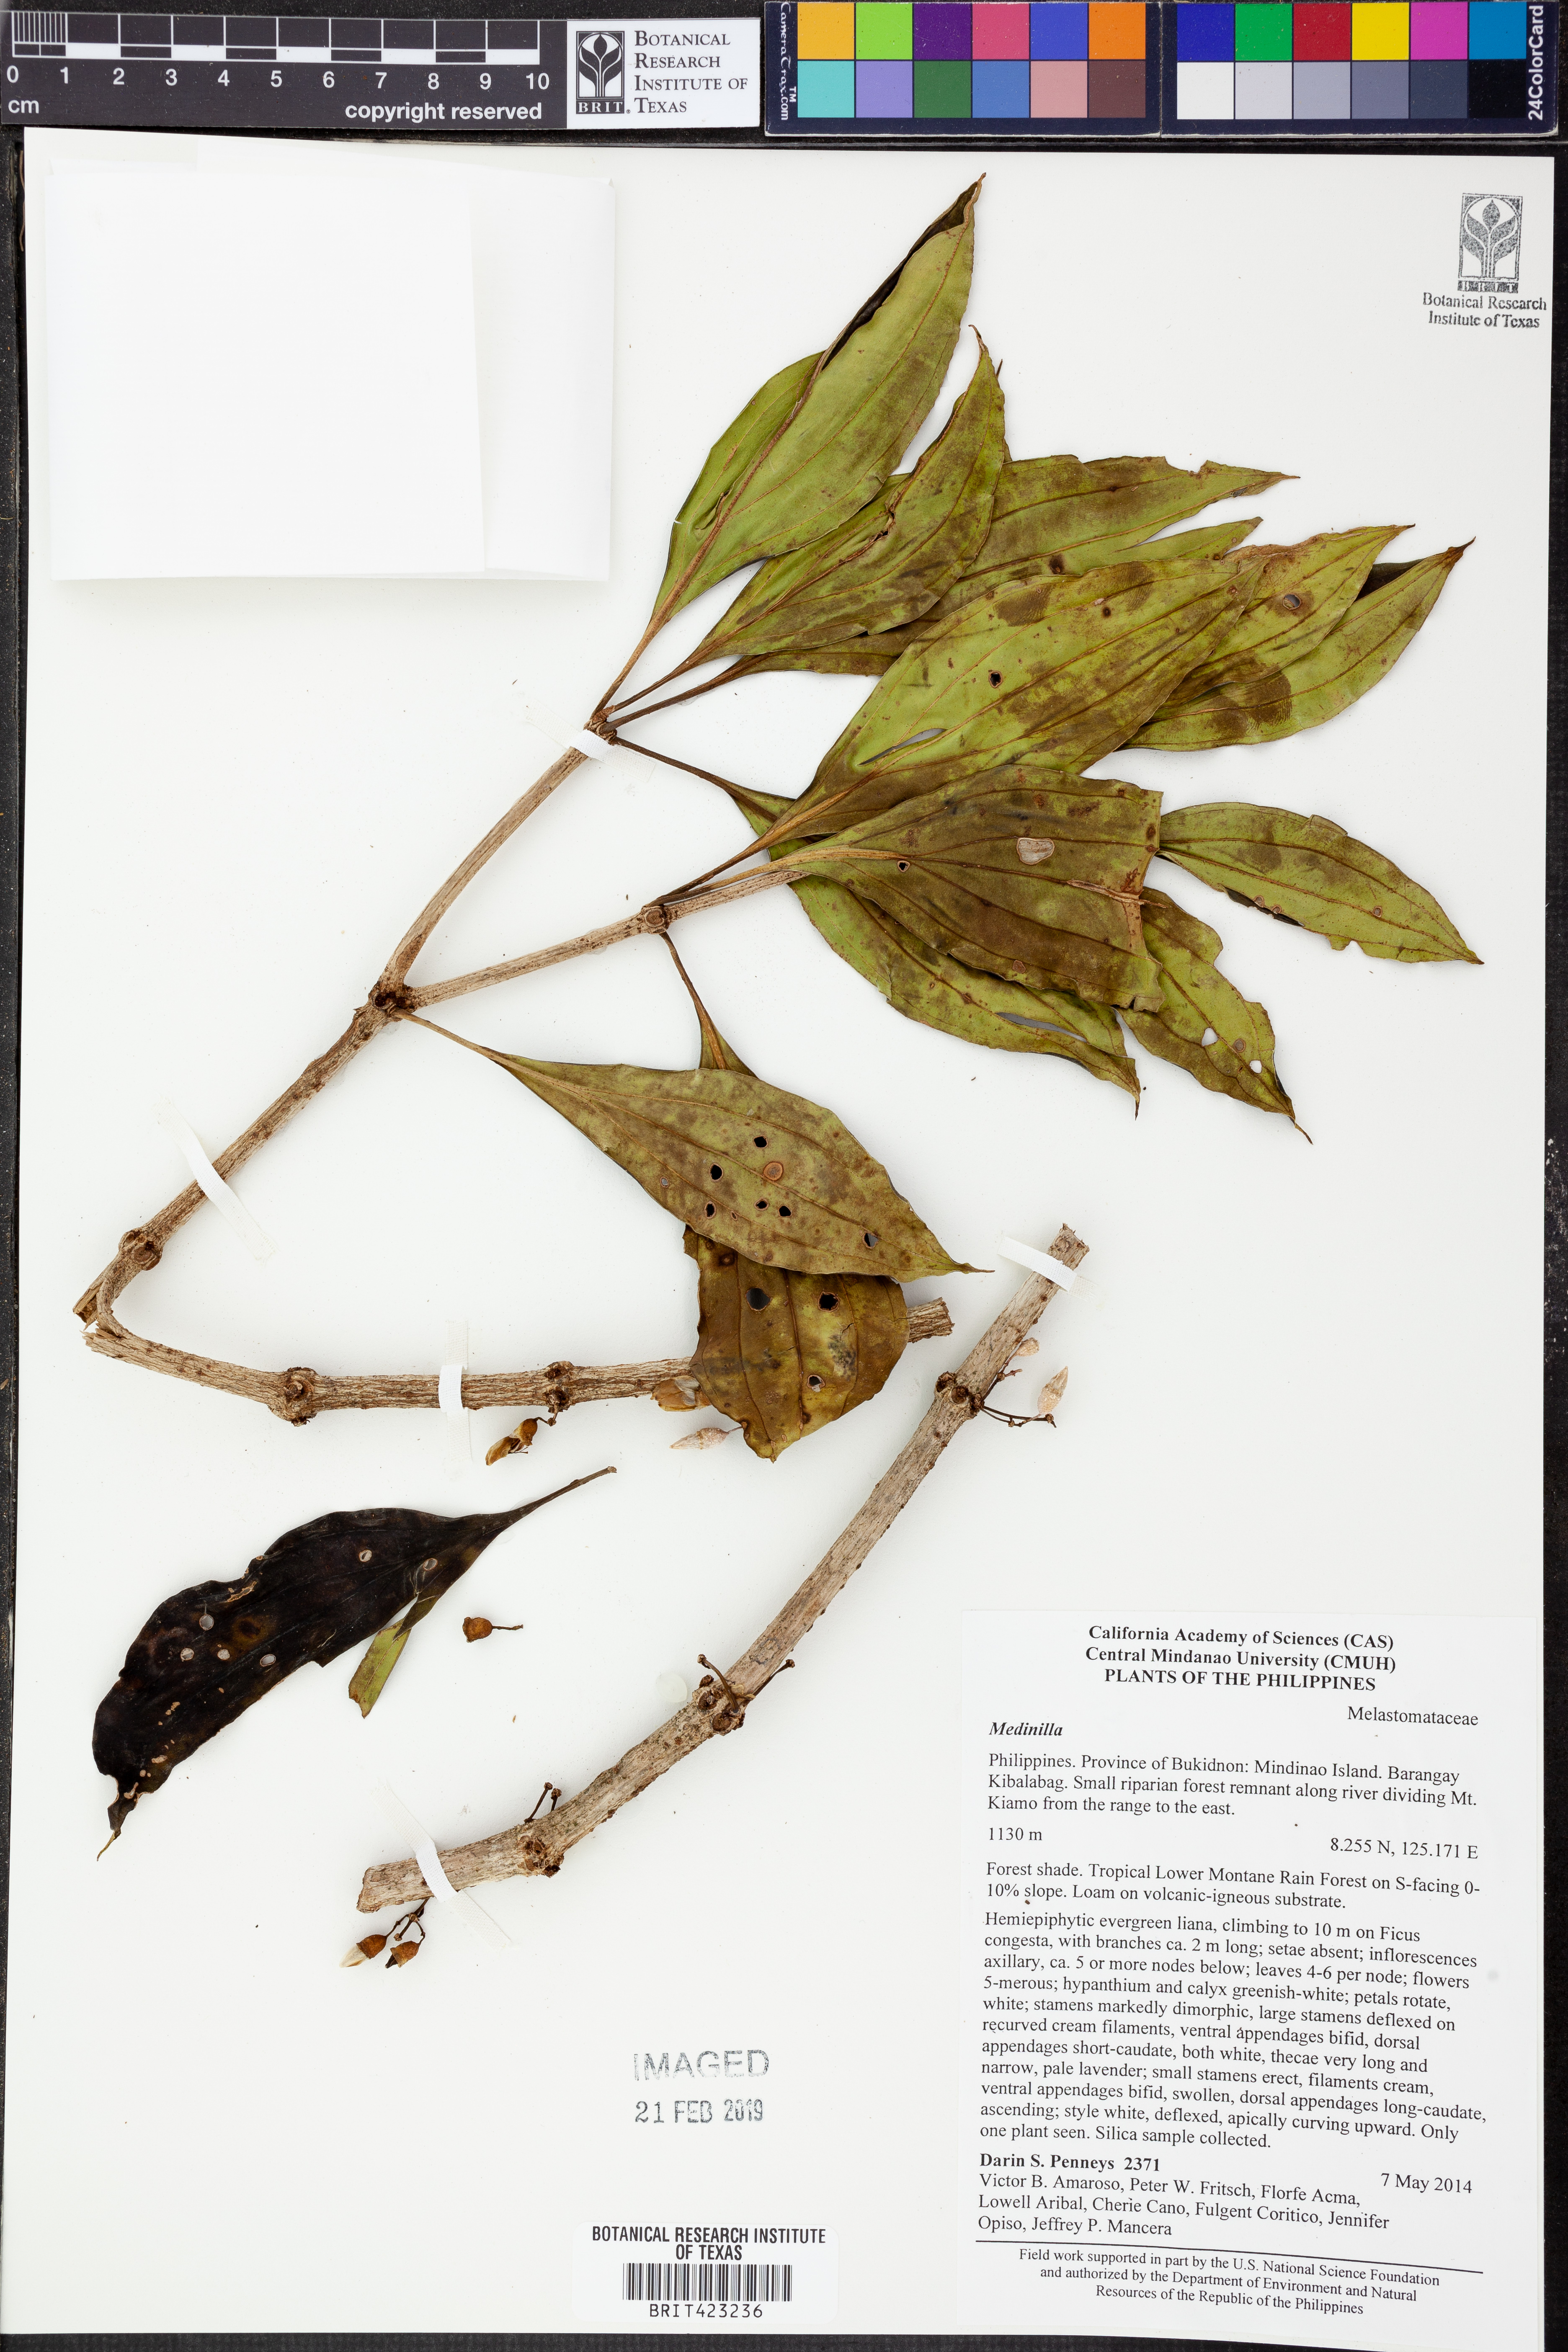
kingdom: Plantae
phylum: Tracheophyta
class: Magnoliopsida
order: Myrtales
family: Melastomataceae
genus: Medinilla
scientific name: Medinilla
